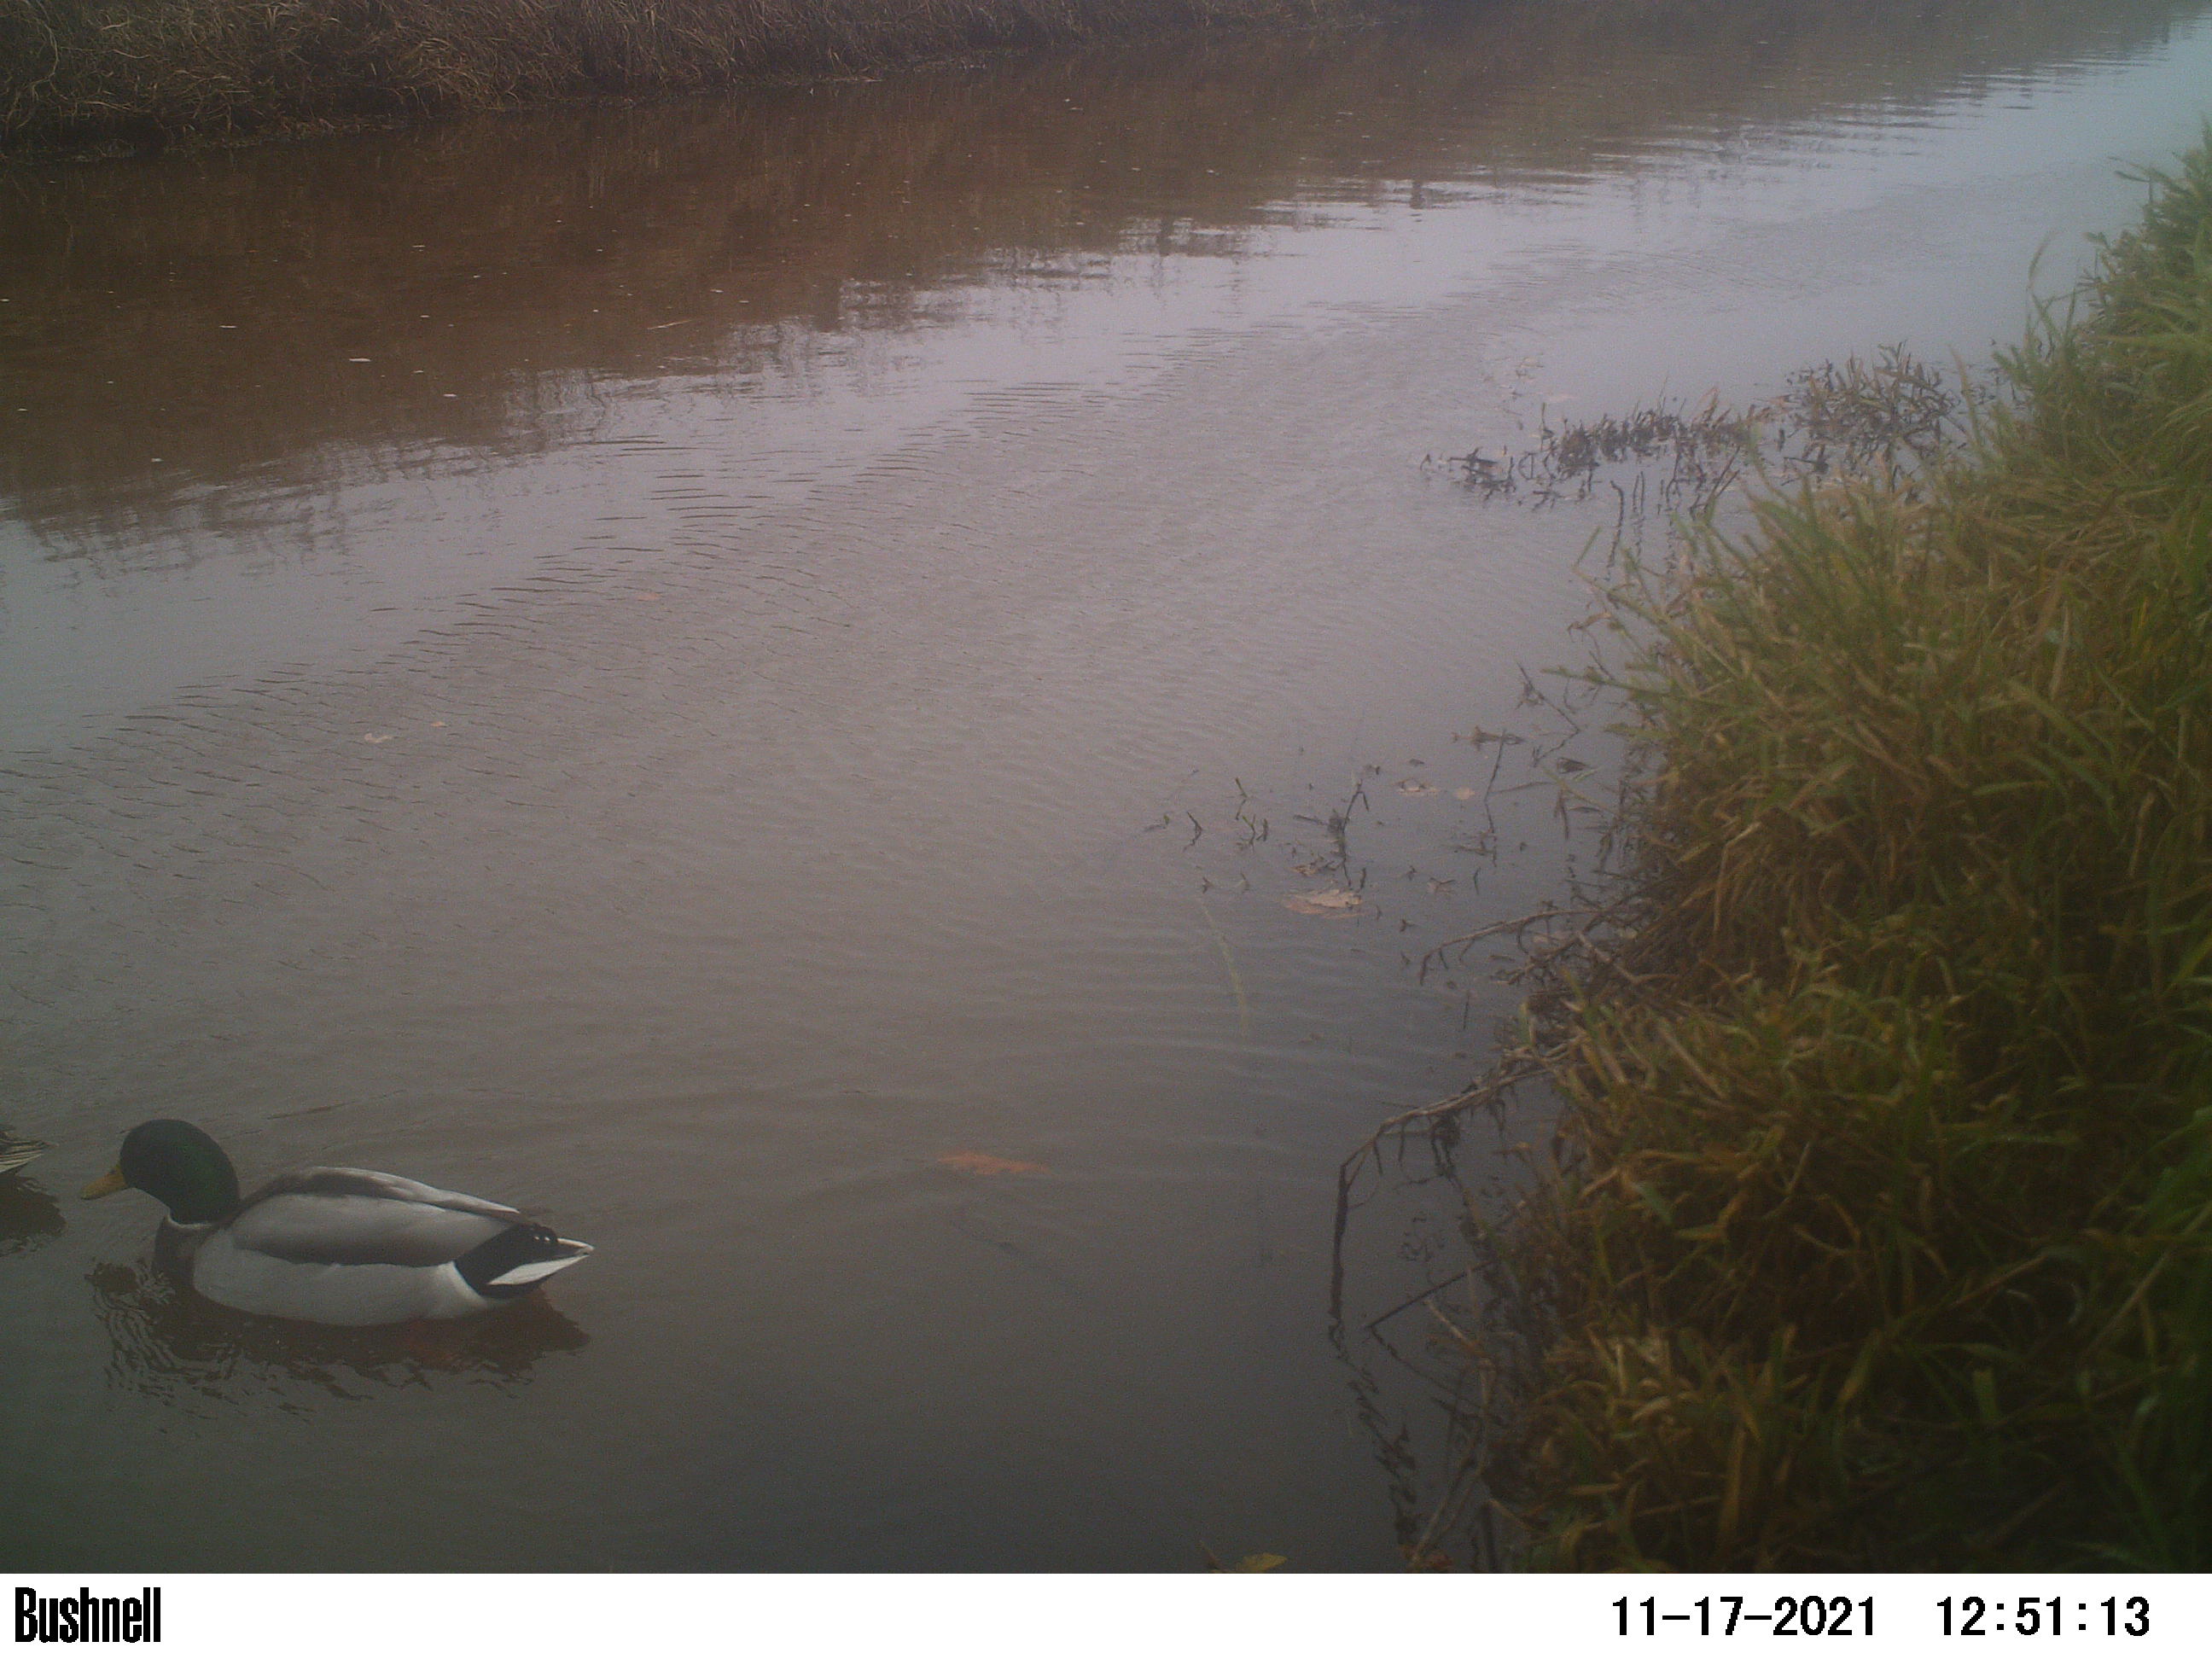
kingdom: Animalia
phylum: Chordata
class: Aves
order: Anseriformes
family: Anatidae
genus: Anas
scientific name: Anas
